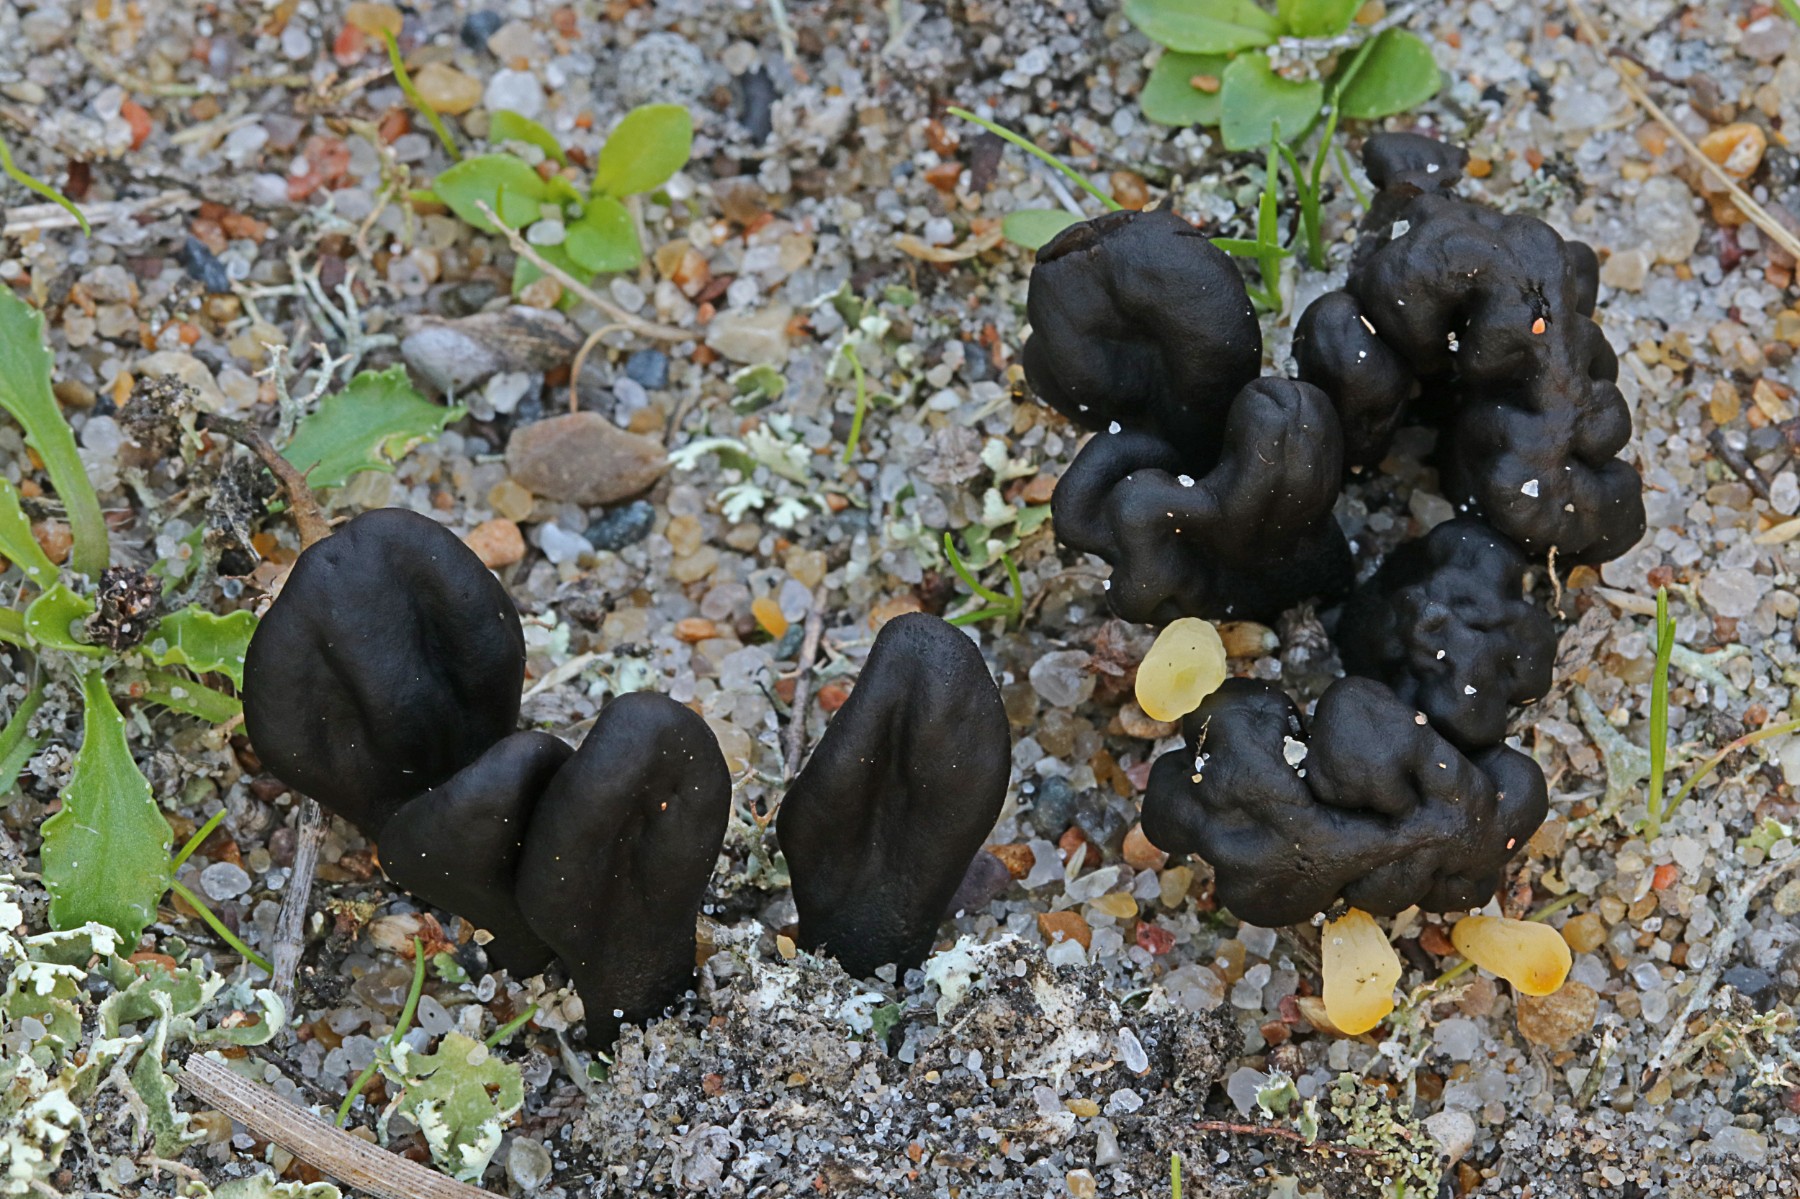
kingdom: Fungi
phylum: Ascomycota
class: Geoglossomycetes
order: Geoglossales
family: Geoglossaceae
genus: Sabuloglossum
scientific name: Sabuloglossum arenarium
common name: klit-jordtunge
